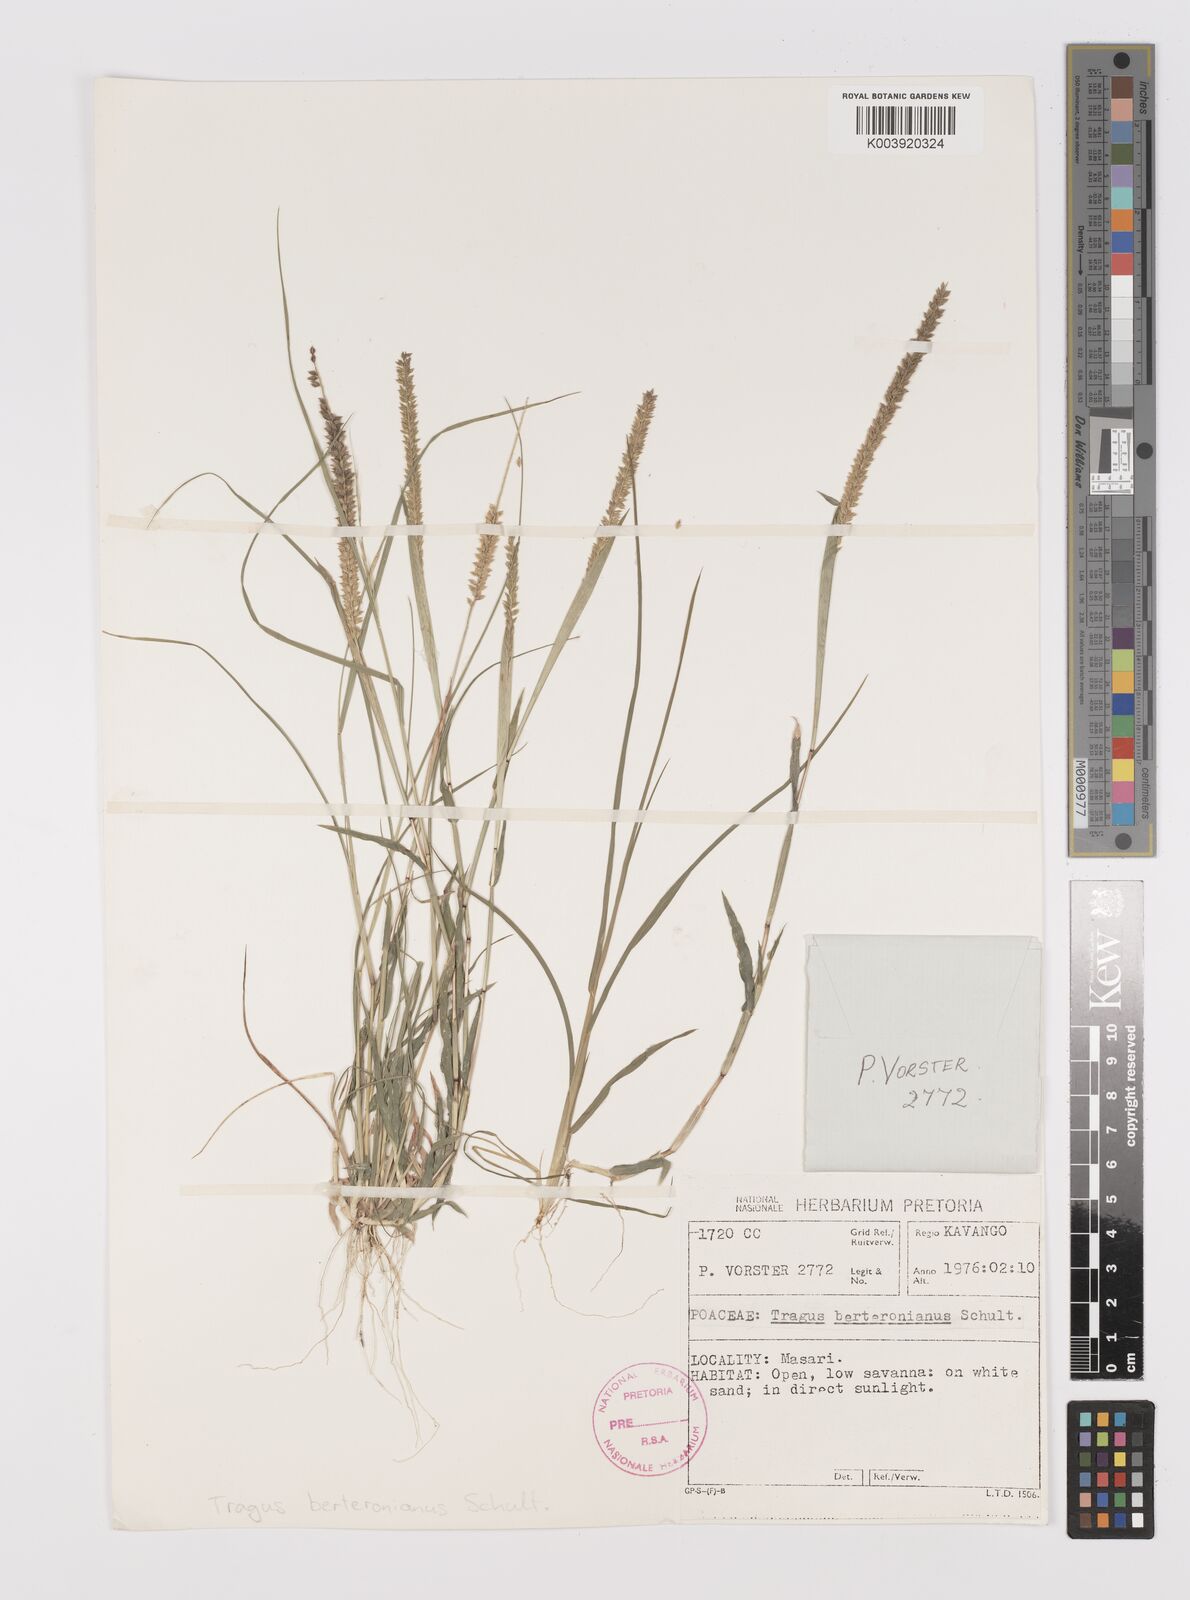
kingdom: Plantae
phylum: Tracheophyta
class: Liliopsida
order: Poales
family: Poaceae
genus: Tragus
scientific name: Tragus berteronianus
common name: African bur-grass
